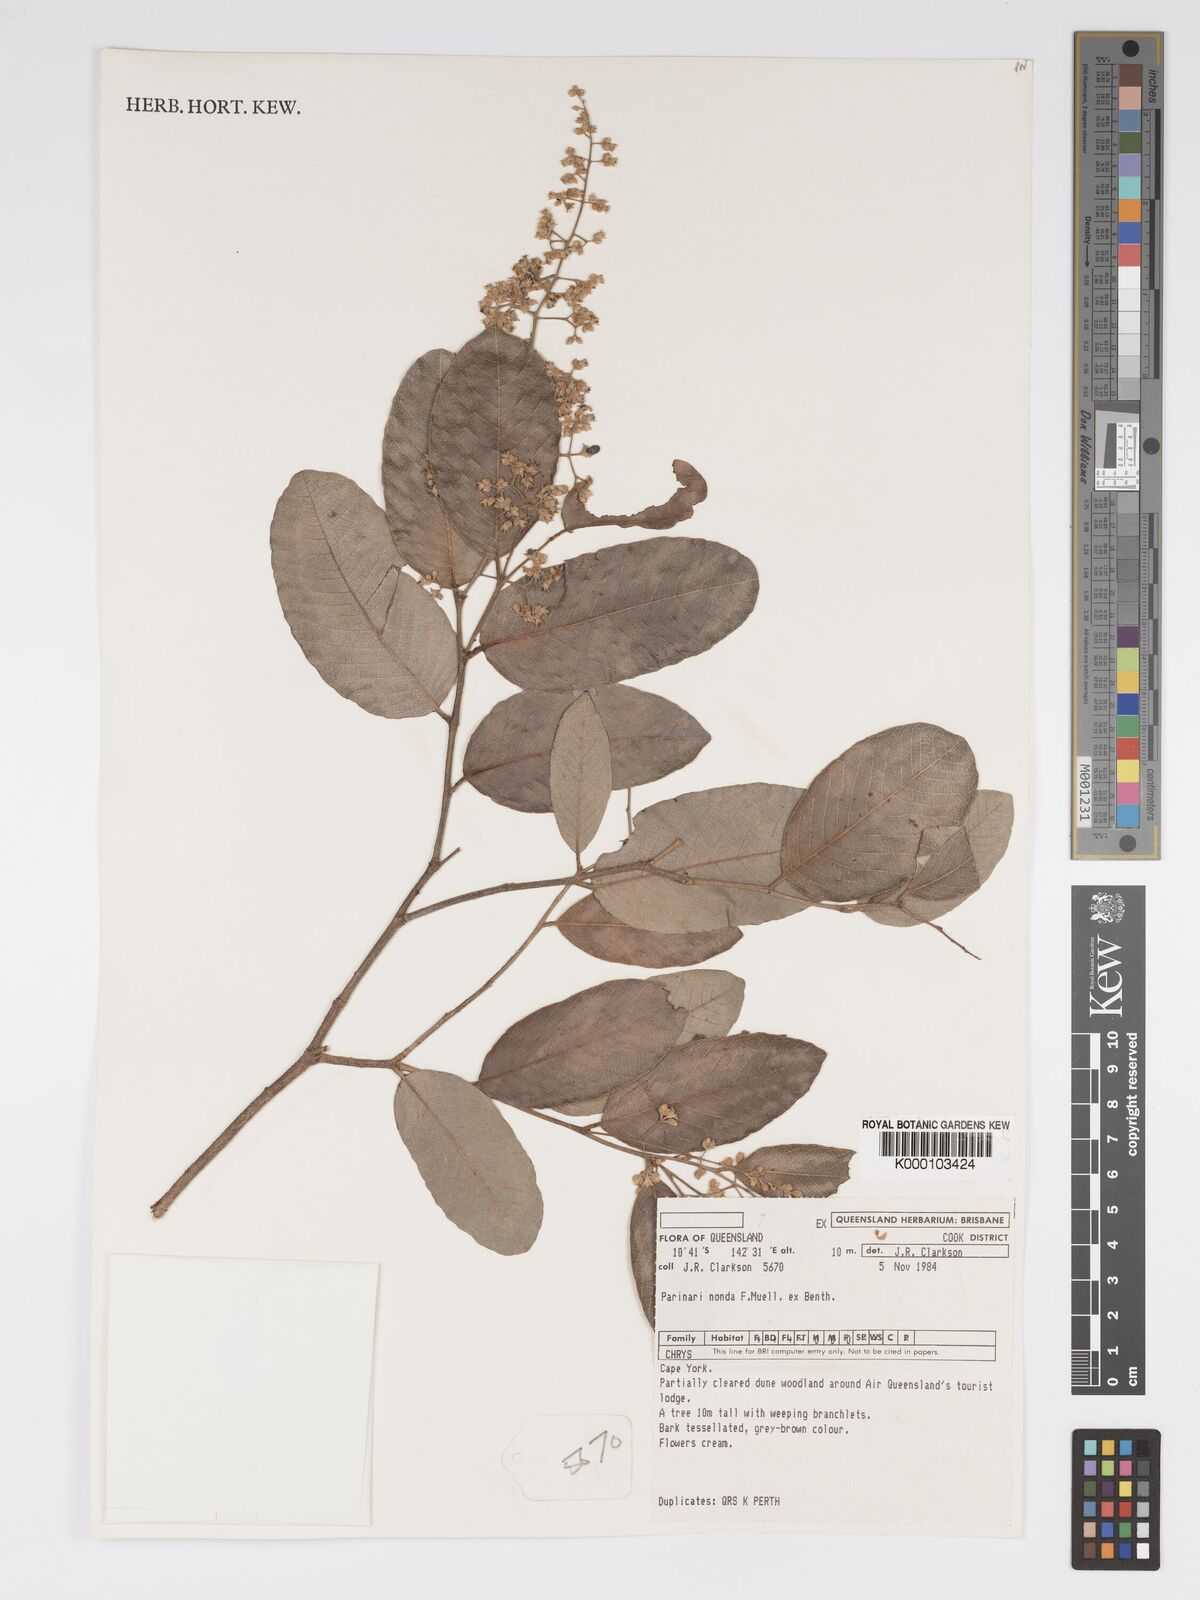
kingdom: Plantae
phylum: Tracheophyta
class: Magnoliopsida
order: Malpighiales
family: Chrysobalanaceae
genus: Parinari
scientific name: Parinari nonda
